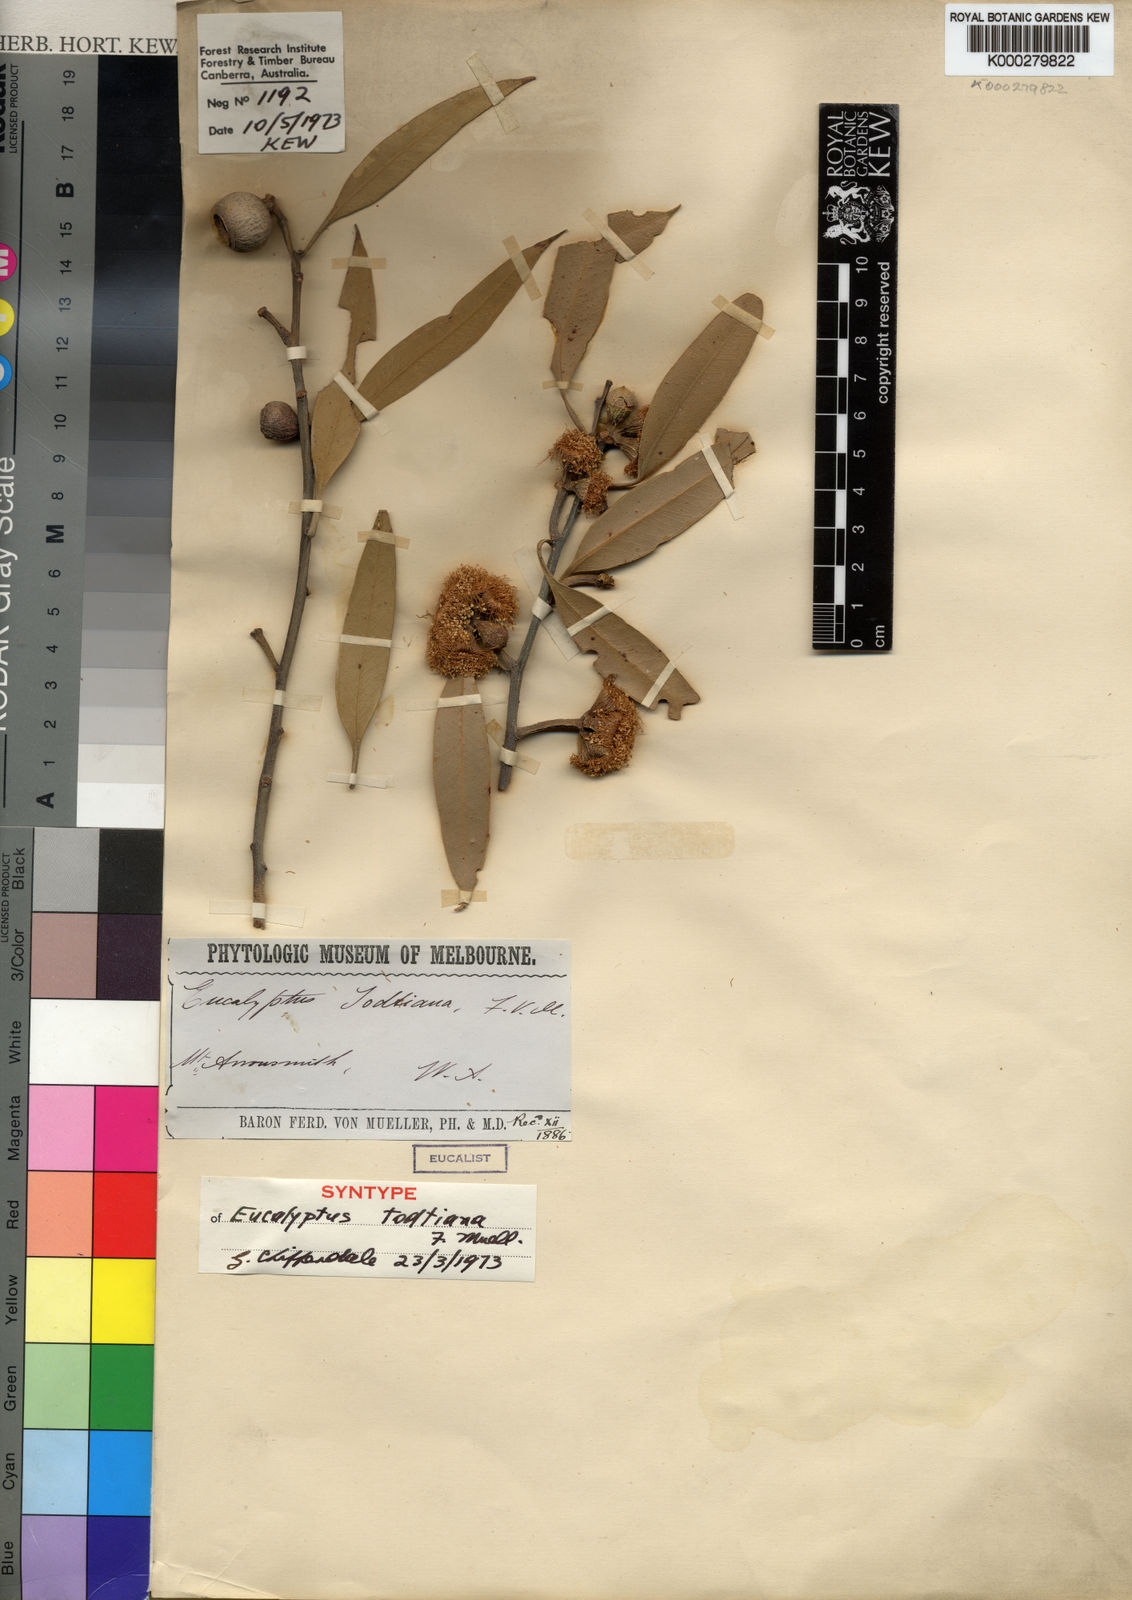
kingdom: Plantae
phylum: Tracheophyta
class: Magnoliopsida
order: Myrtales
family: Myrtaceae
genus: Eucalyptus
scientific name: Eucalyptus todtiana
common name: Coastal blackbutt
